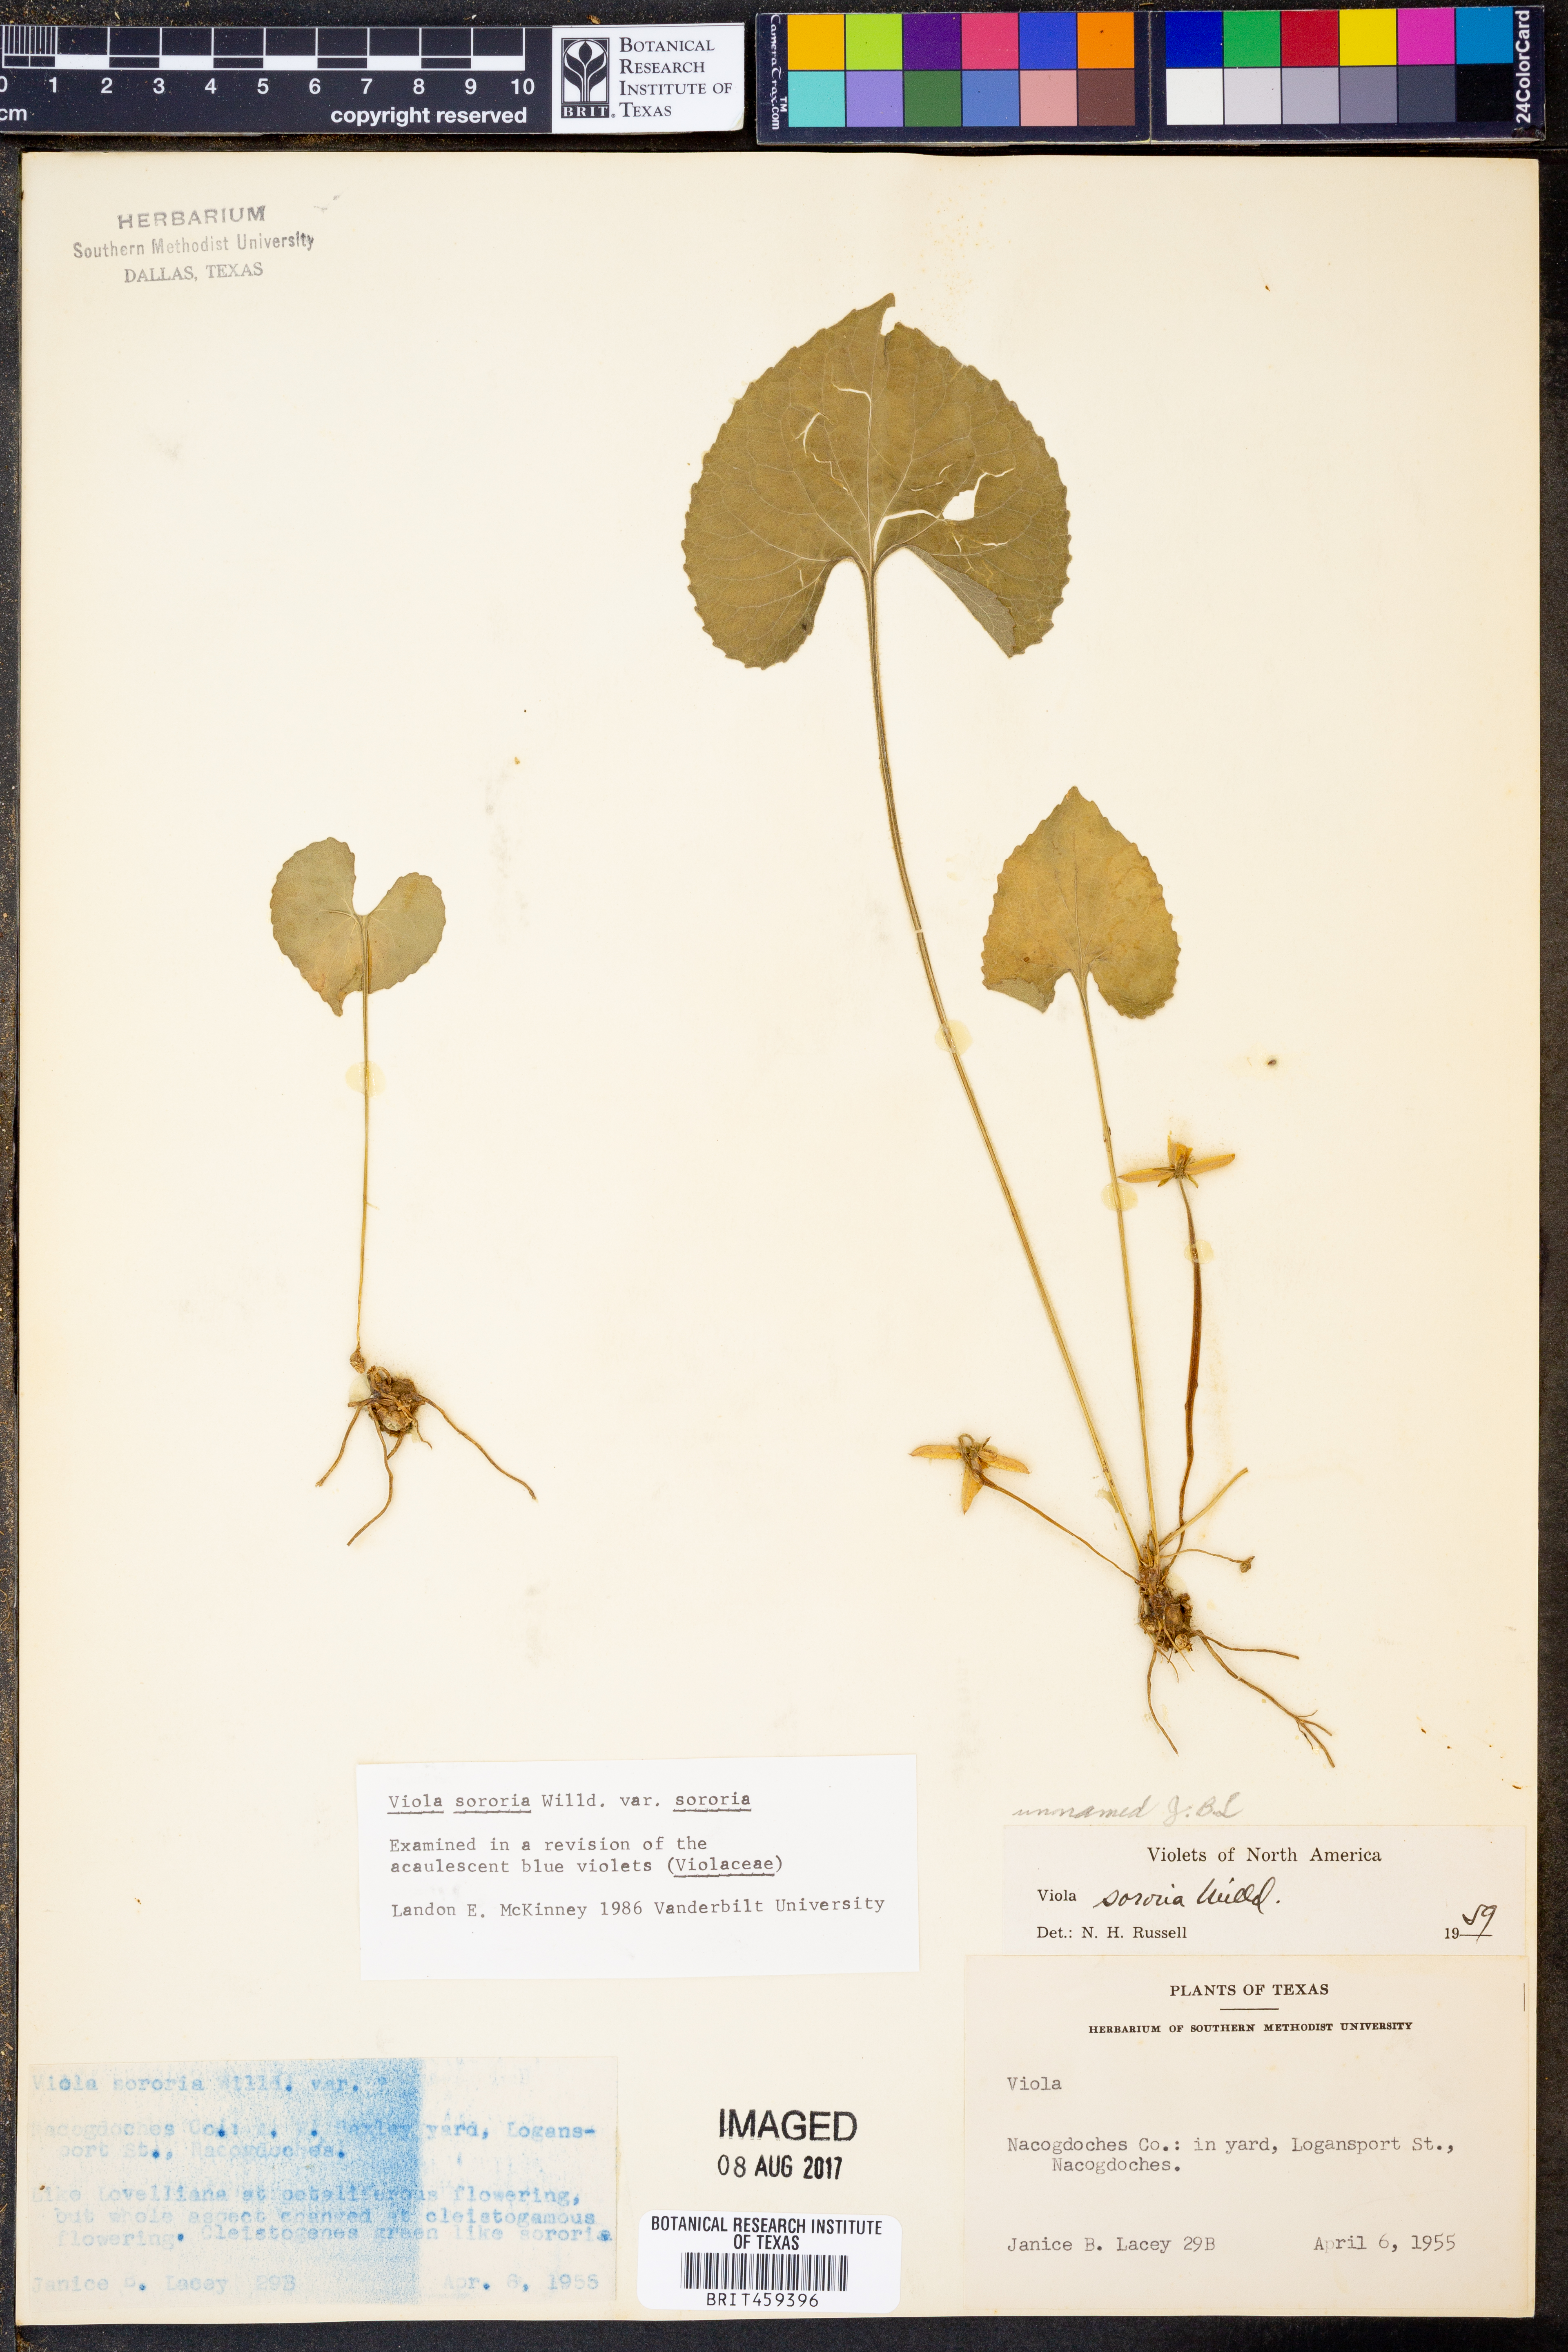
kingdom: Plantae
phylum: Tracheophyta
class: Magnoliopsida
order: Malpighiales
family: Violaceae
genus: Viola
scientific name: Viola sororia
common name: Dooryard violet
